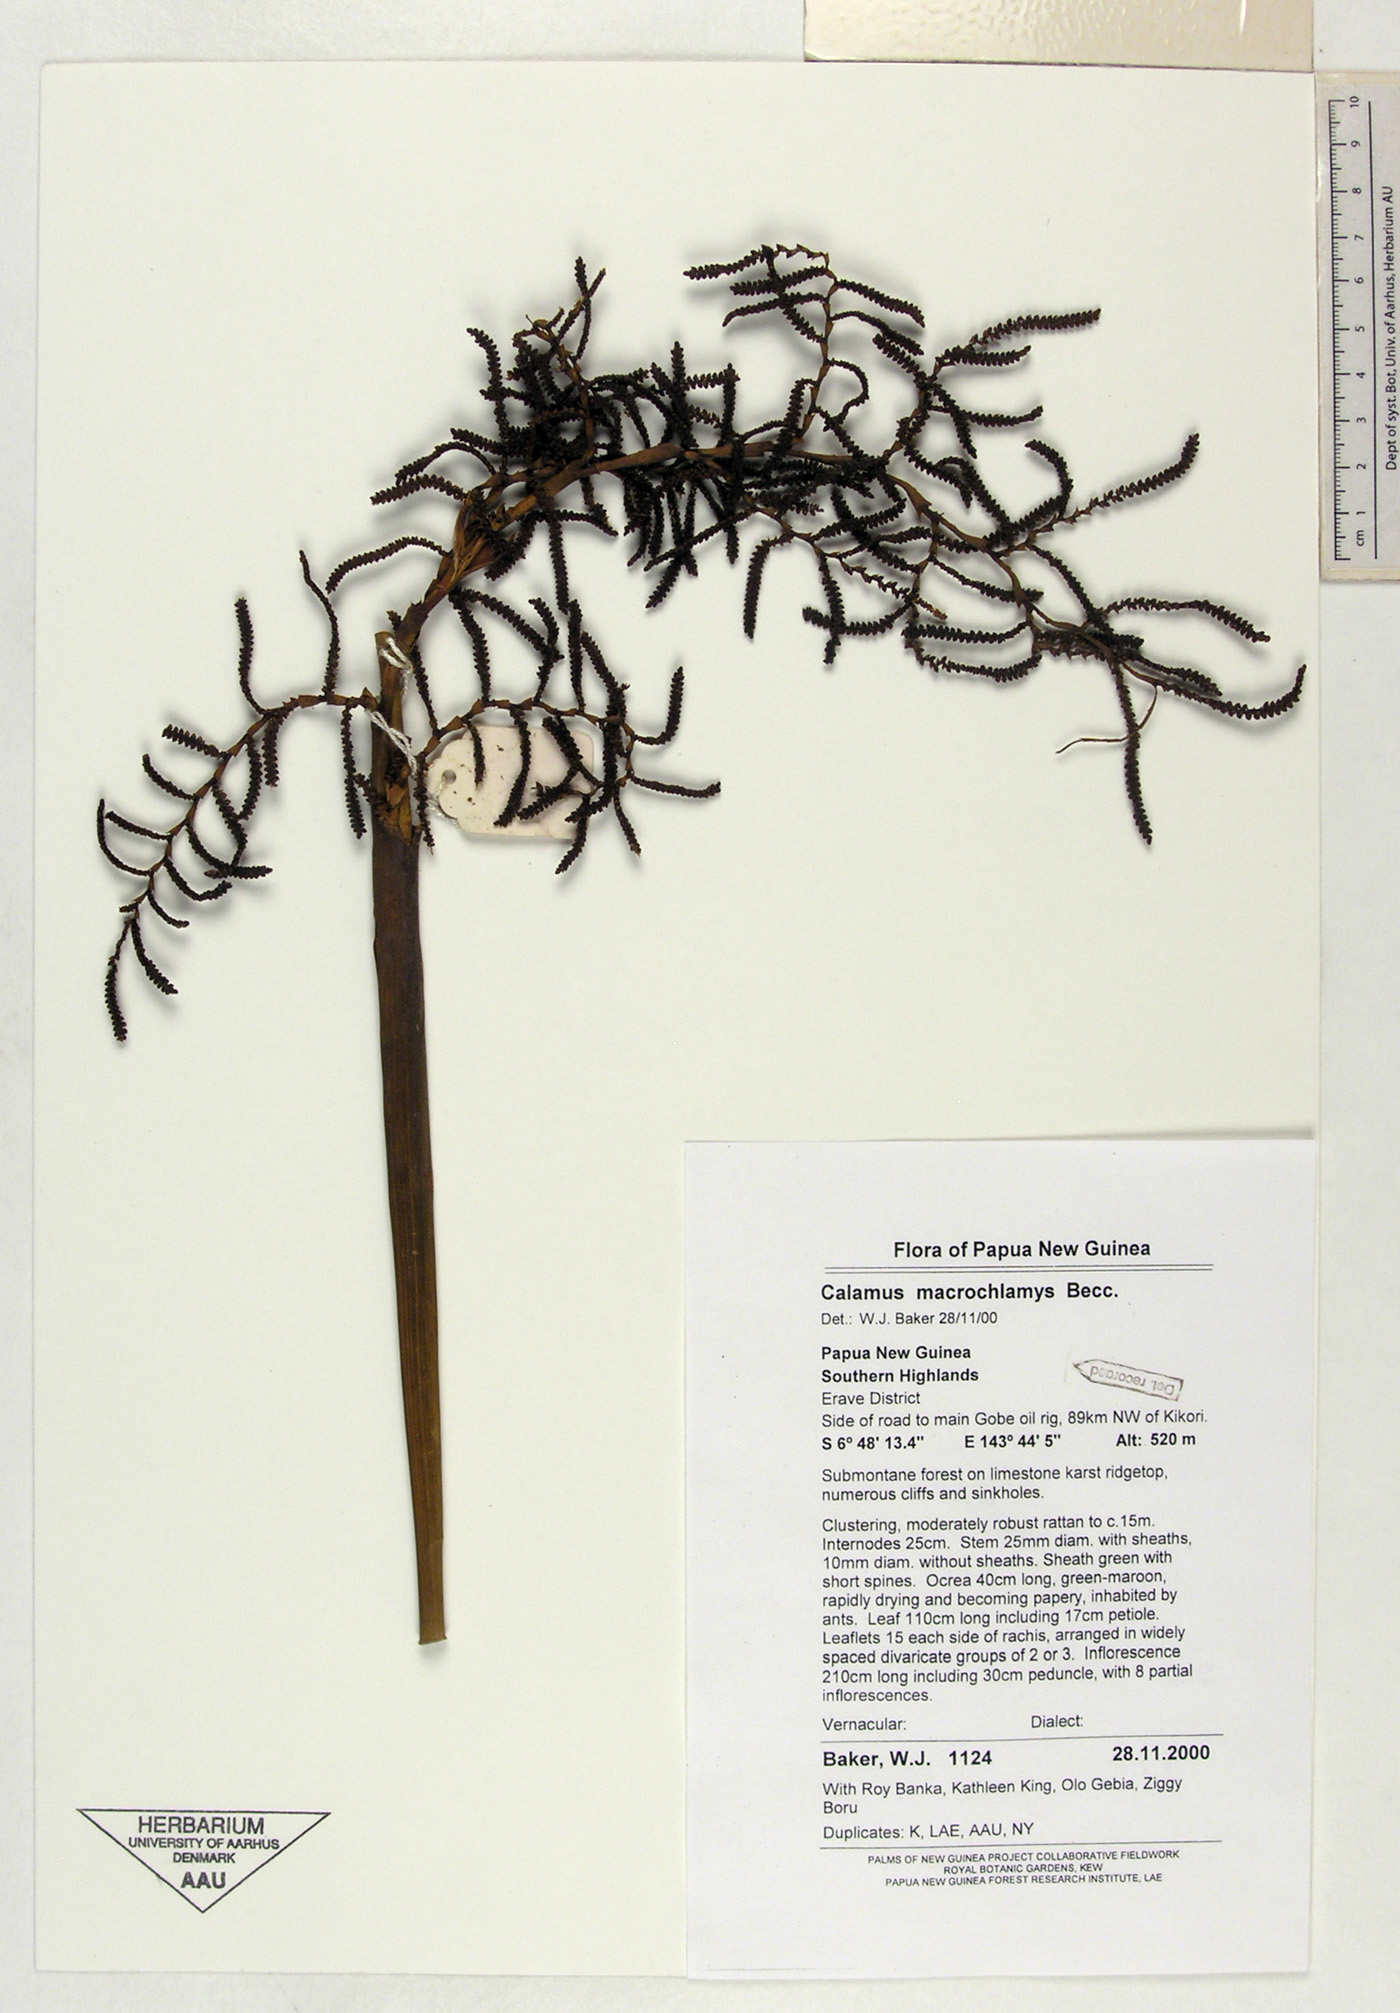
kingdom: Plantae
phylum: Tracheophyta
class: Liliopsida
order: Arecales
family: Arecaceae
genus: Calamus
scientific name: Calamus macrochlamys
